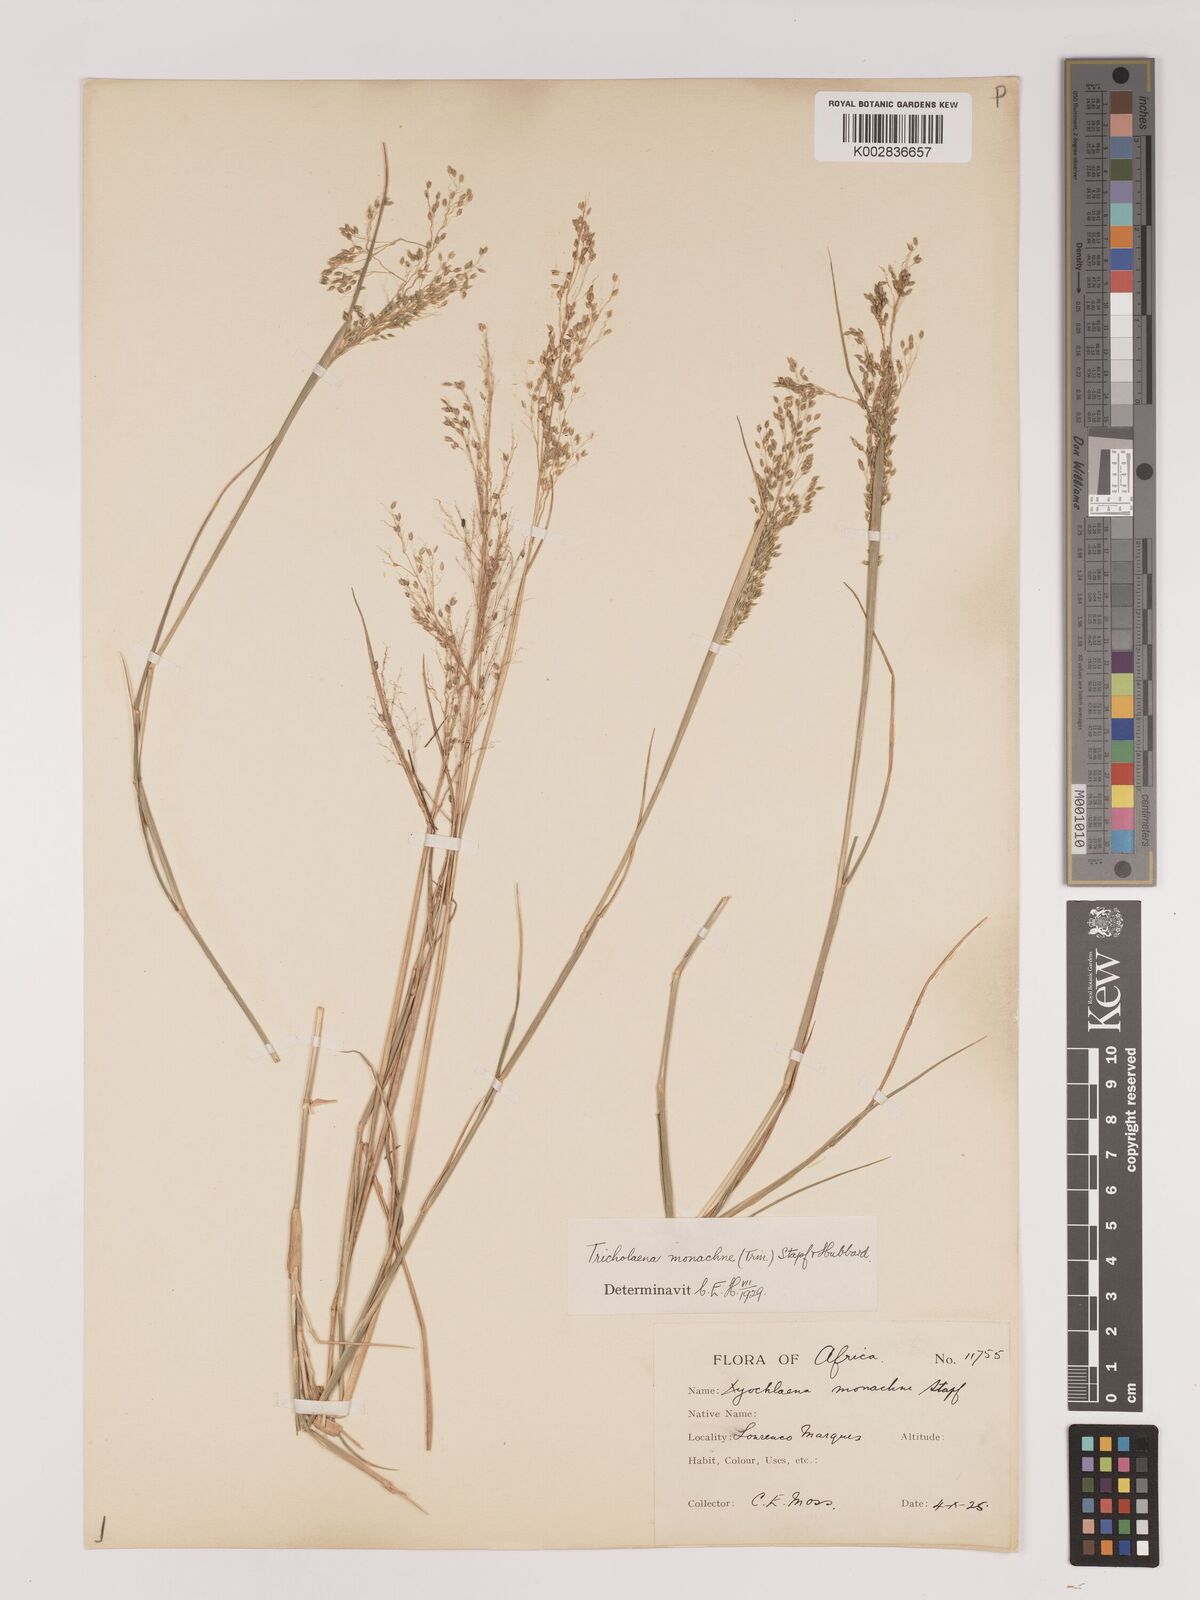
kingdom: Plantae
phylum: Tracheophyta
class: Liliopsida
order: Poales
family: Poaceae
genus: Tricholaena
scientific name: Tricholaena monachne
